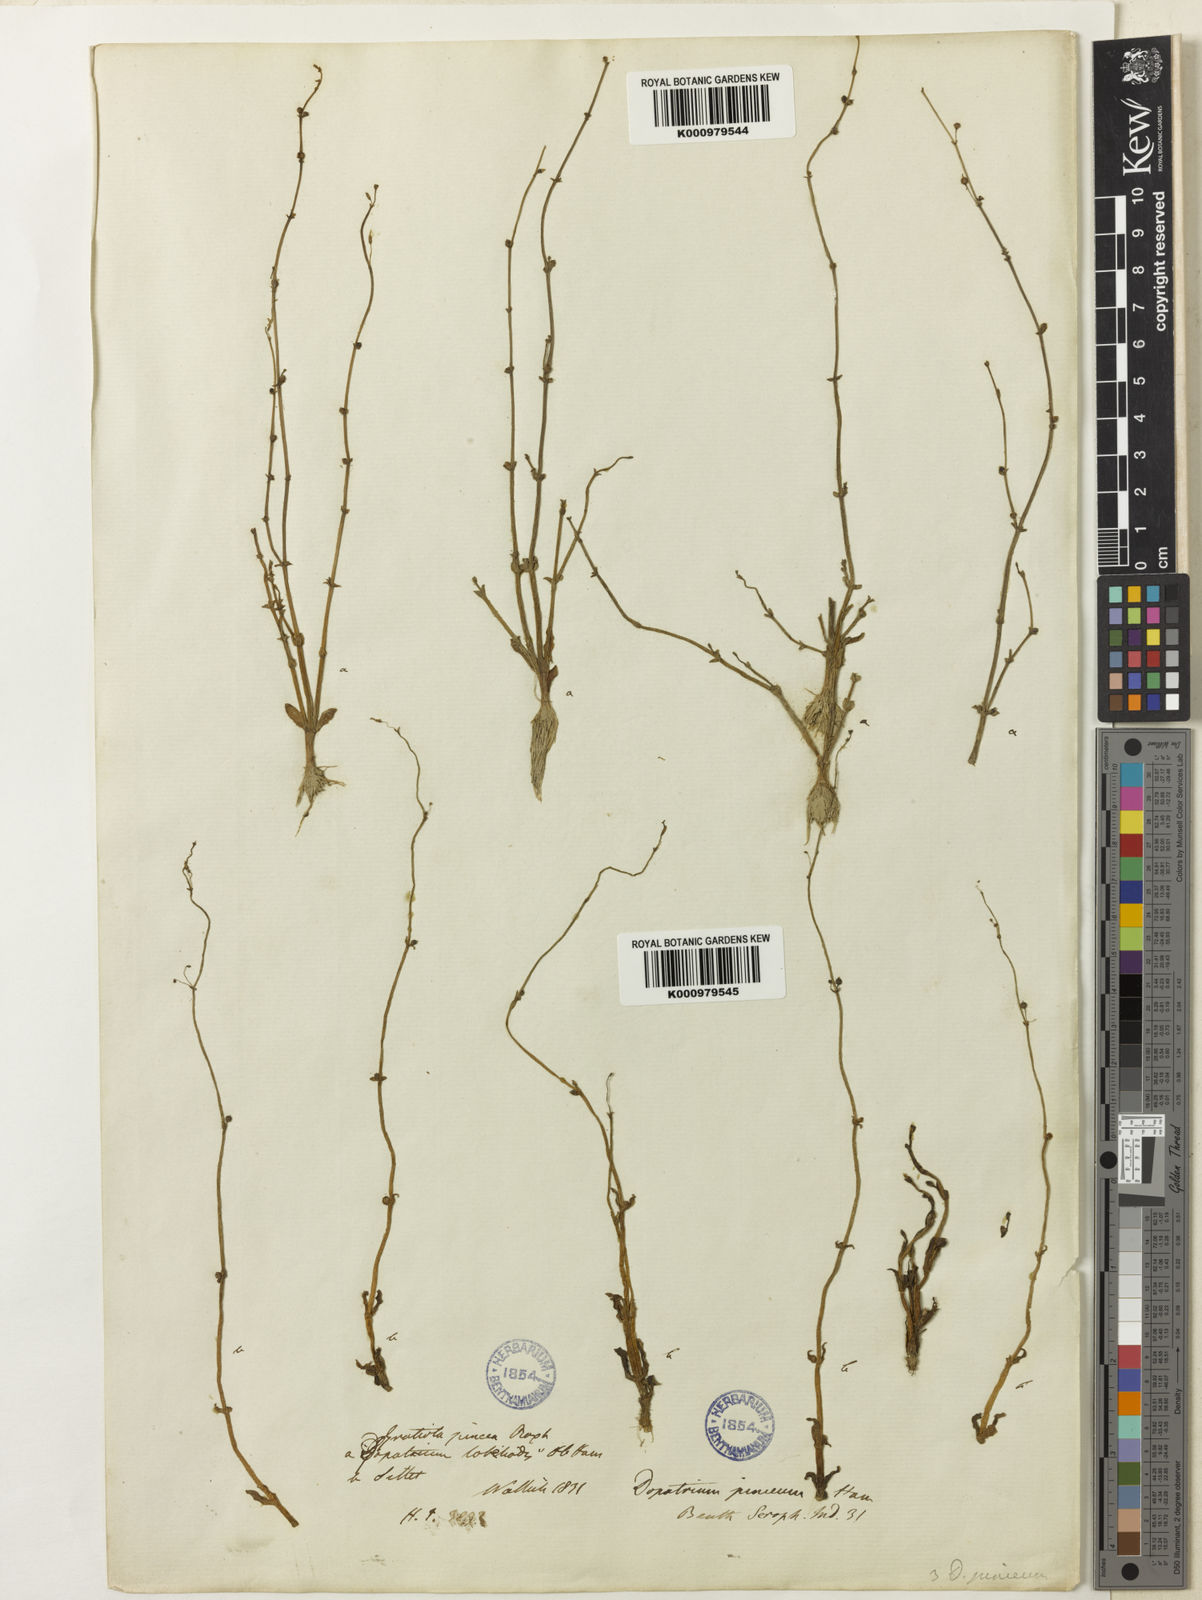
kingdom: Plantae
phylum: Tracheophyta
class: Magnoliopsida
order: Lamiales
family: Plantaginaceae
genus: Dopatrium
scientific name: Dopatrium junceum
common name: Horsefly's eye
